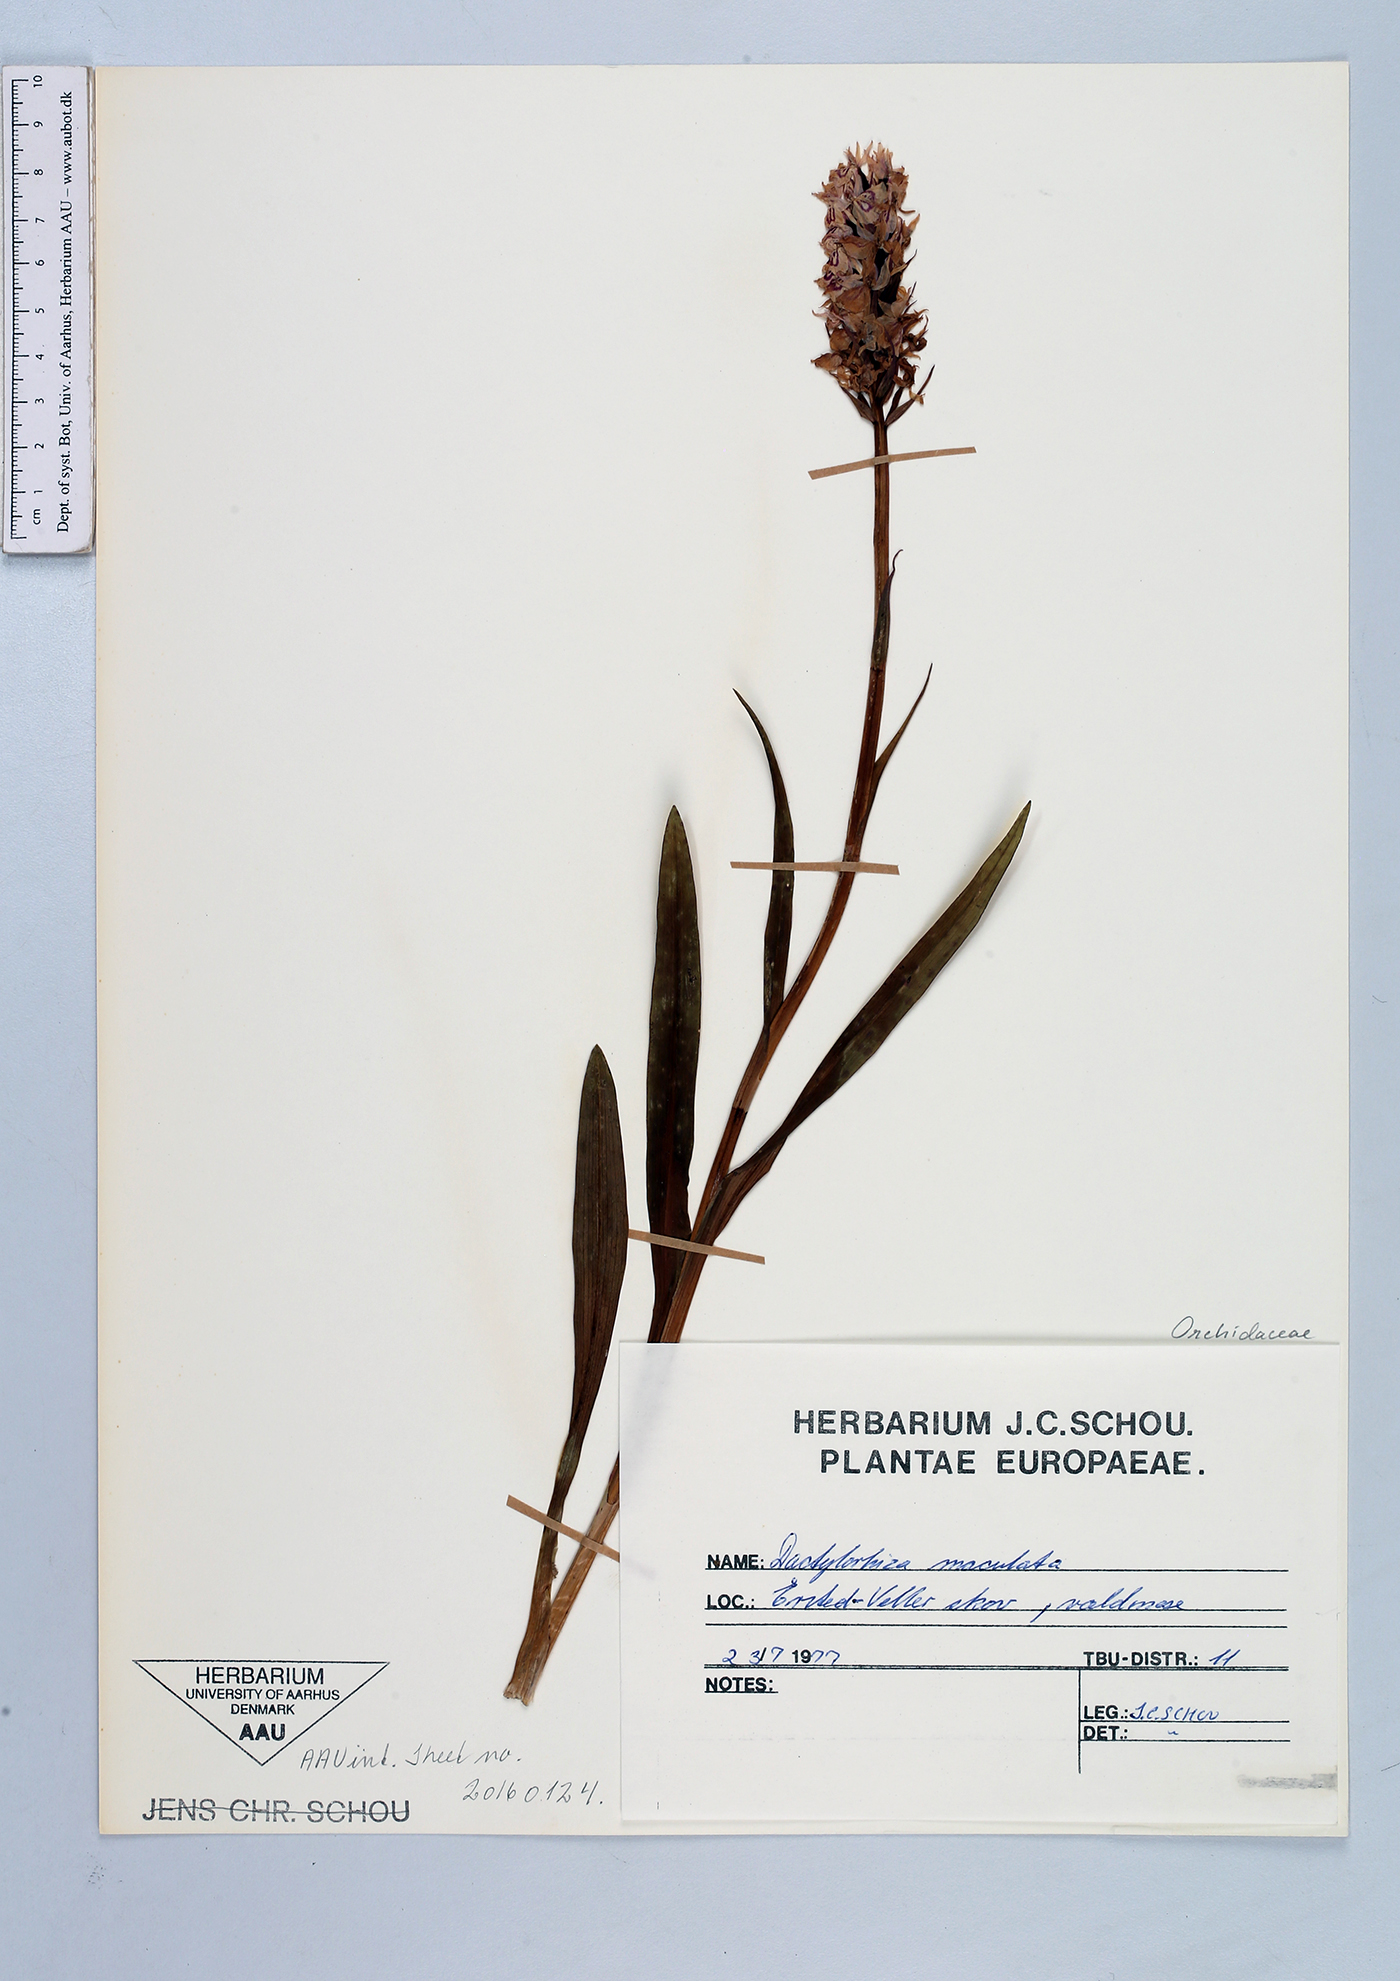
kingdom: Plantae
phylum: Tracheophyta
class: Liliopsida
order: Asparagales
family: Orchidaceae
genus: Dactylorhiza
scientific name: Dactylorhiza maculata
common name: Heath spotted-orchid
